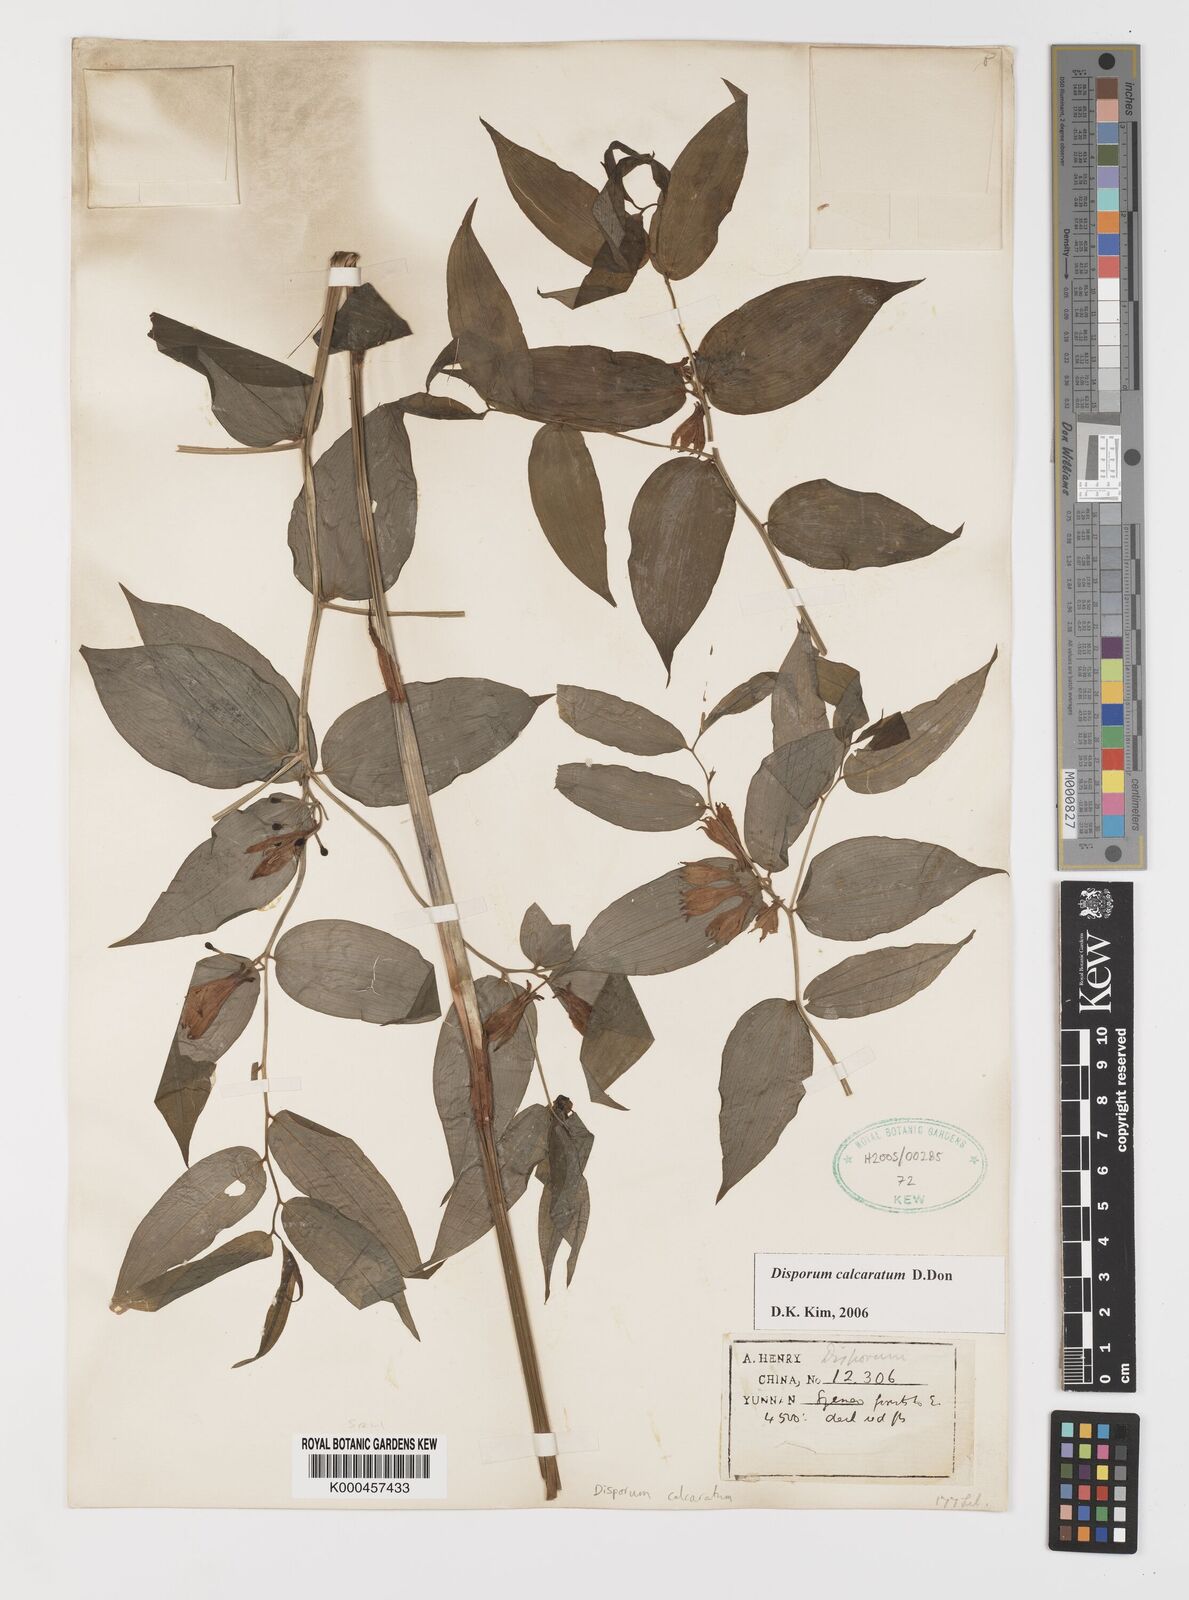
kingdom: Plantae
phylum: Tracheophyta
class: Liliopsida
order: Liliales
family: Colchicaceae
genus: Disporum
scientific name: Disporum calcaratum
